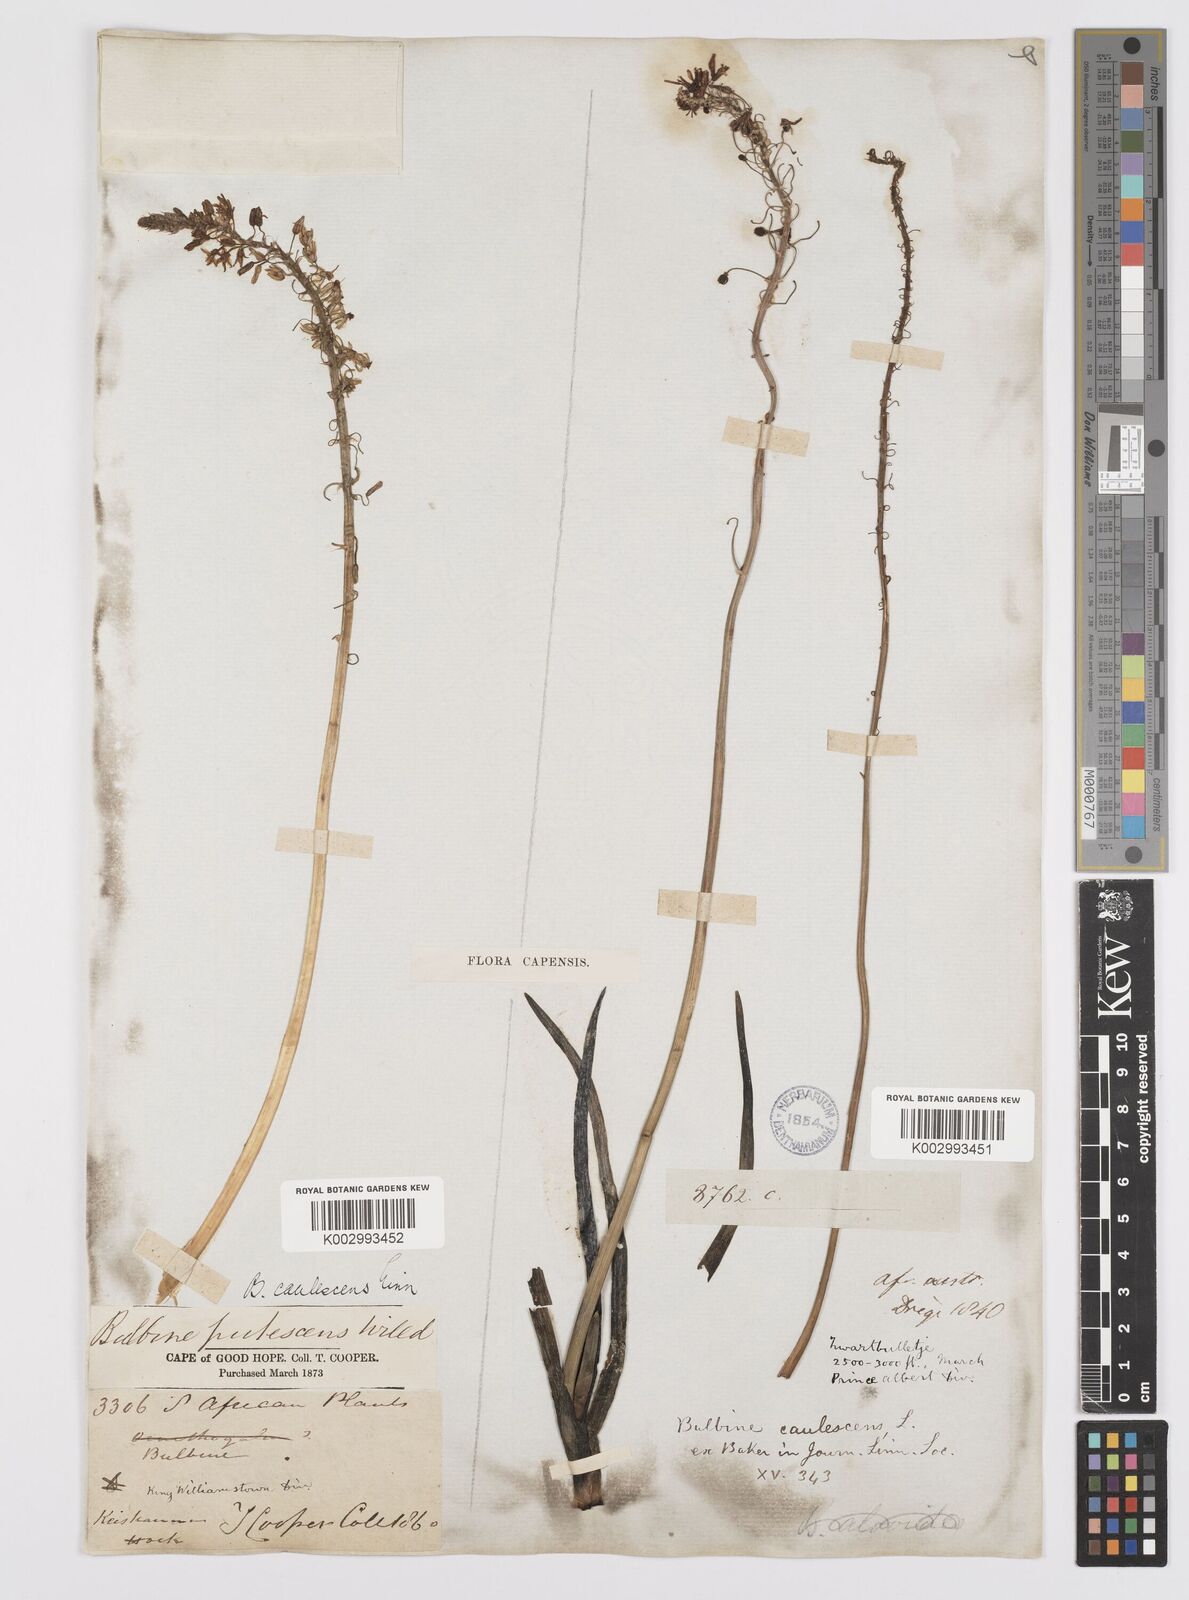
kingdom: Plantae
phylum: Tracheophyta
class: Liliopsida
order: Asparagales
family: Asphodelaceae
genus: Bulbine
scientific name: Bulbine frutescens
